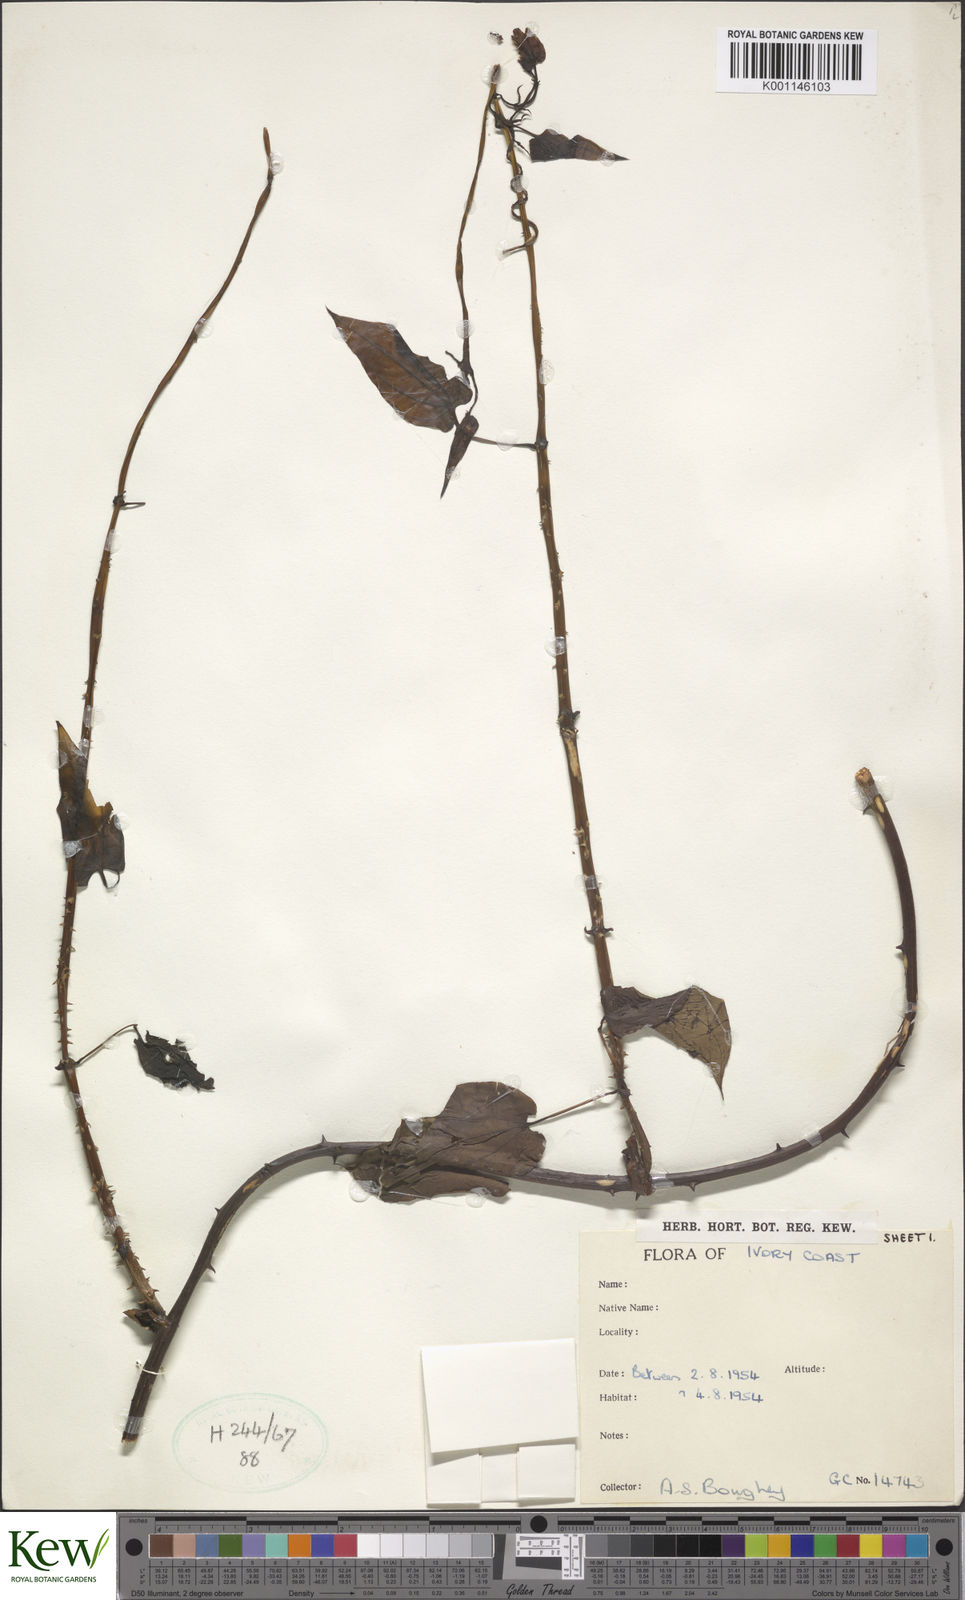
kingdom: Plantae
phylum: Tracheophyta
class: Liliopsida
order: Dioscoreales
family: Dioscoreaceae
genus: Dioscorea
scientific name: Dioscorea
